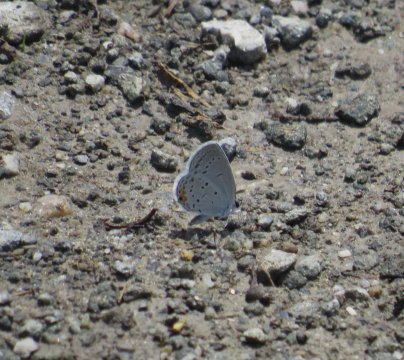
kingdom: Animalia
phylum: Arthropoda
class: Insecta
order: Lepidoptera
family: Lycaenidae
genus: Elkalyce
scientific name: Elkalyce comyntas
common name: Eastern Tailed-Blue
